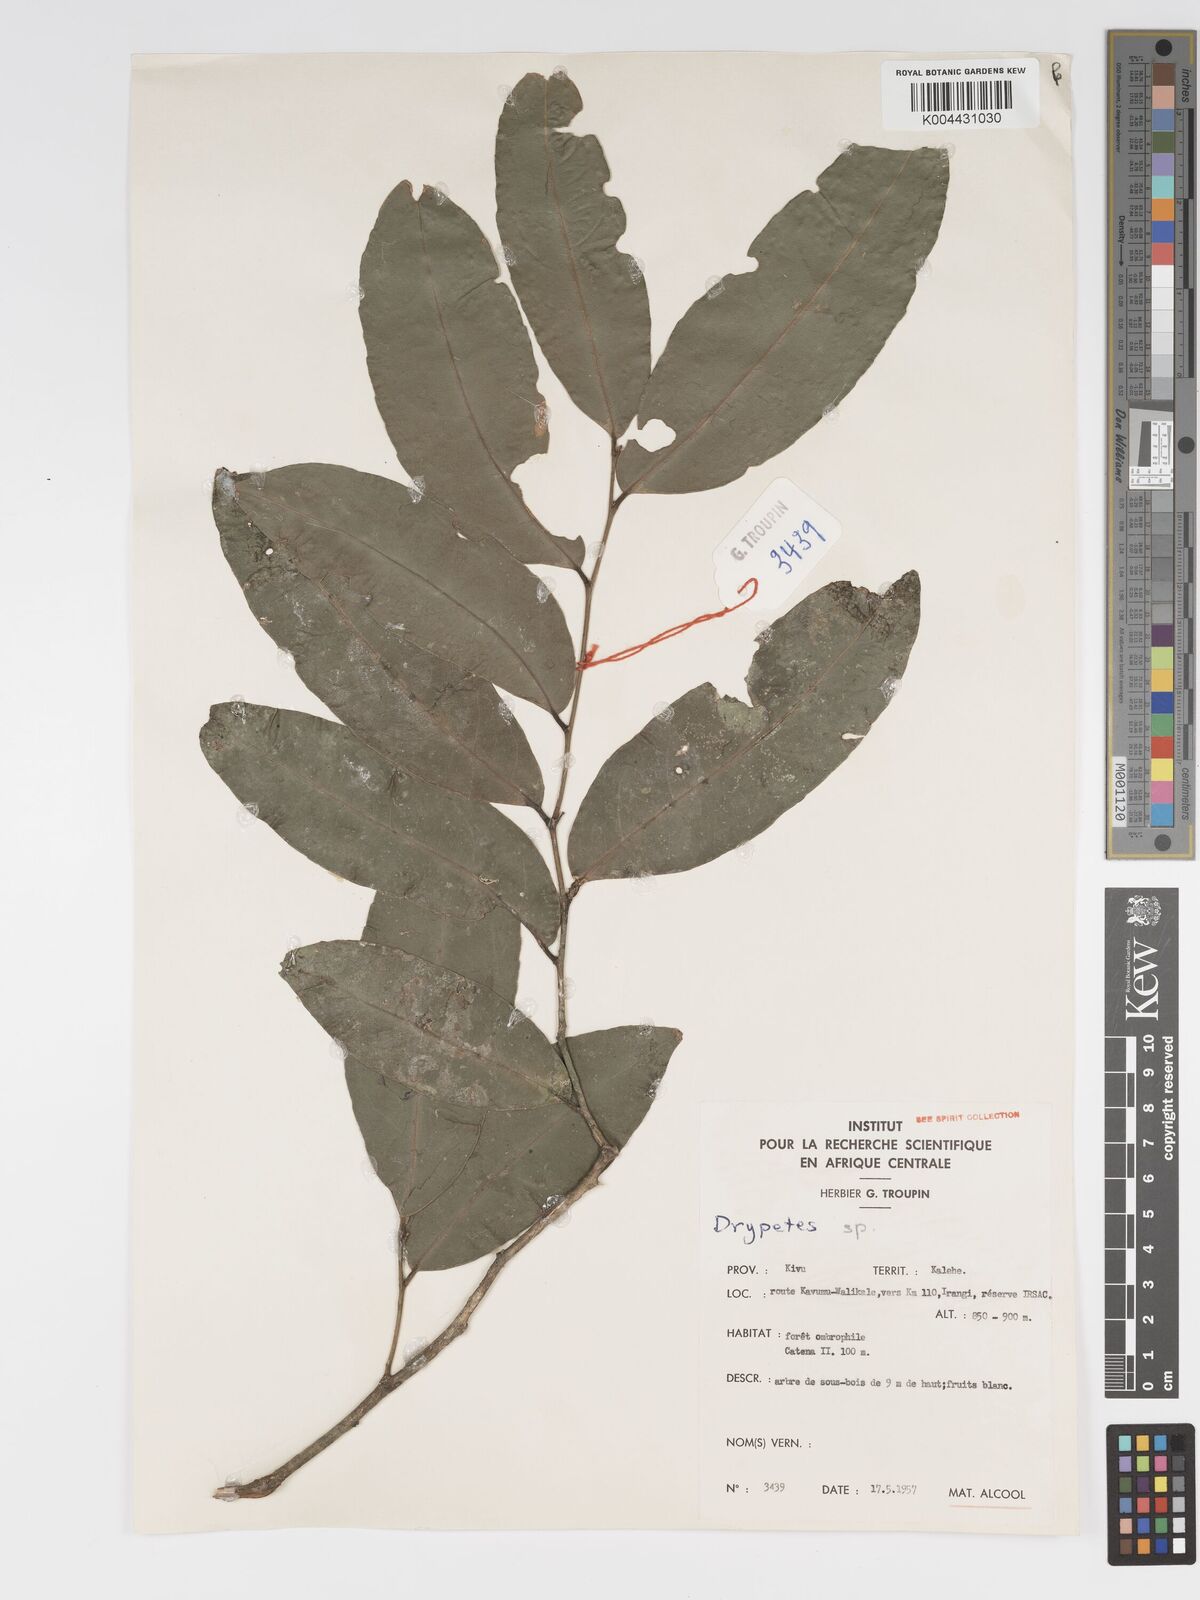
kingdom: Plantae
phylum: Tracheophyta
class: Magnoliopsida
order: Malpighiales
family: Putranjivaceae
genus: Drypetes
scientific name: Drypetes
